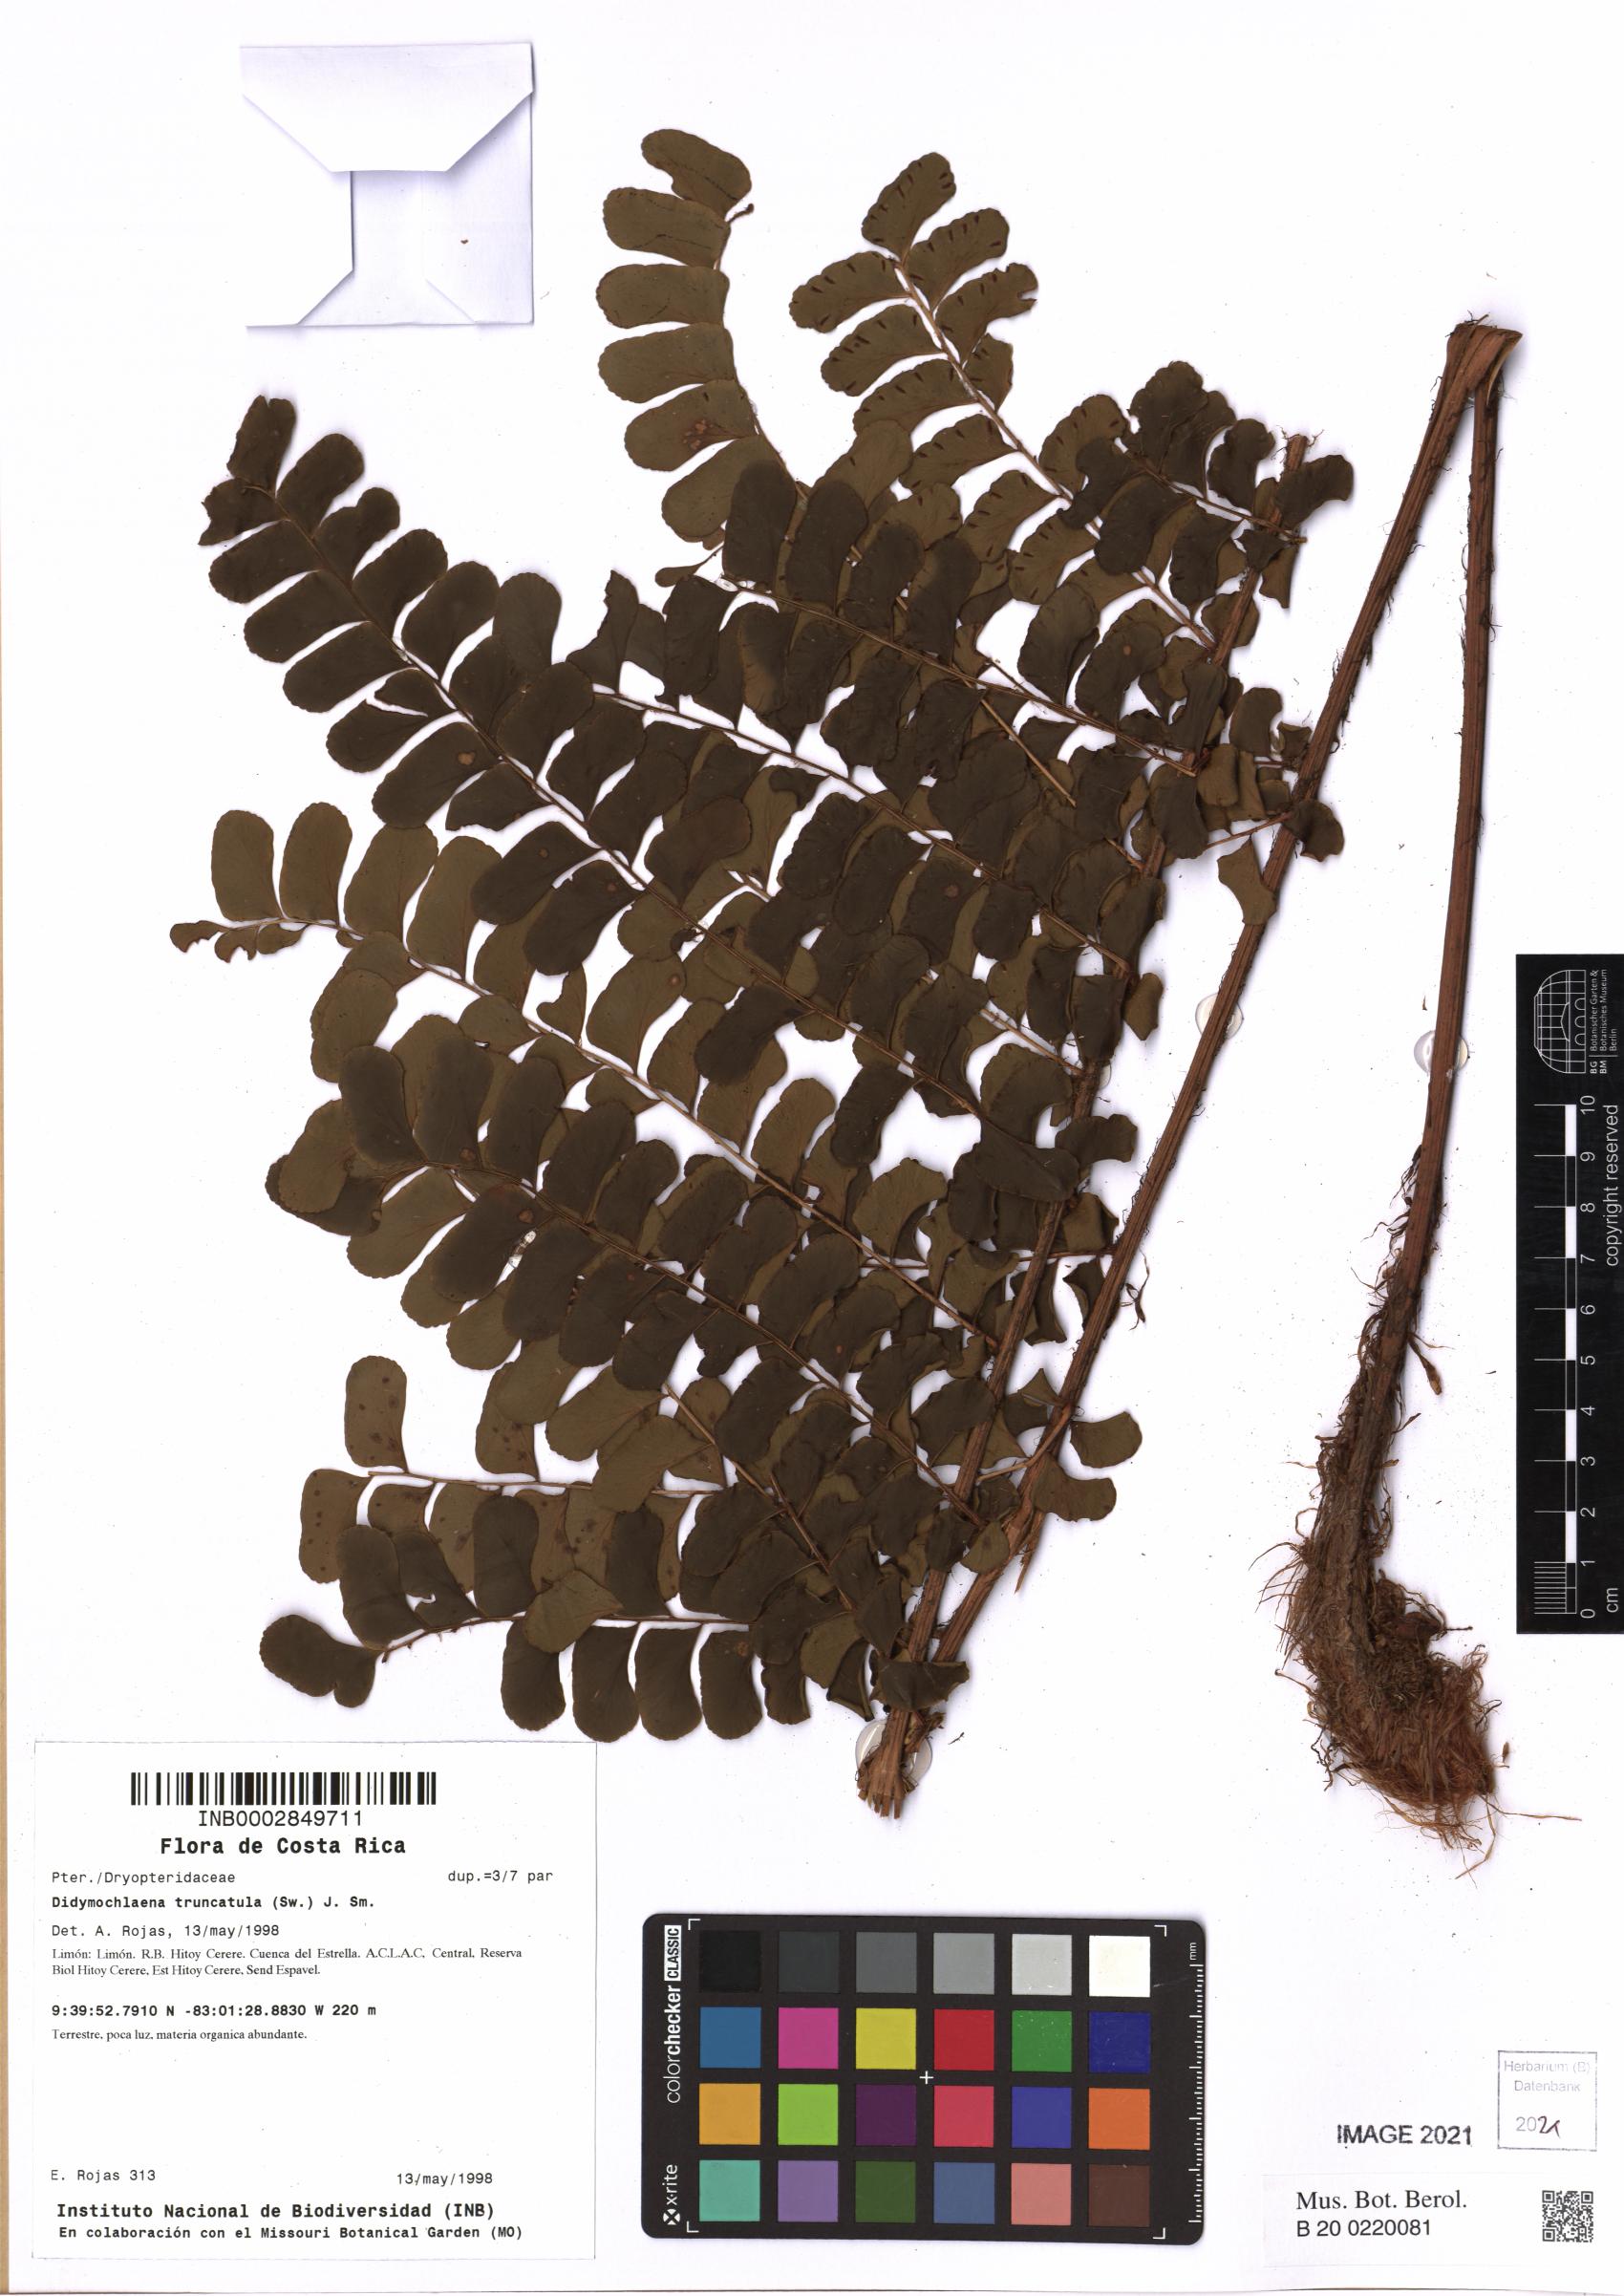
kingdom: Plantae
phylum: Tracheophyta
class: Polypodiopsida
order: Polypodiales
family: Didymochlaenaceae
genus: Didymochlaena
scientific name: Didymochlaena truncatula
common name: Mahogany fern
